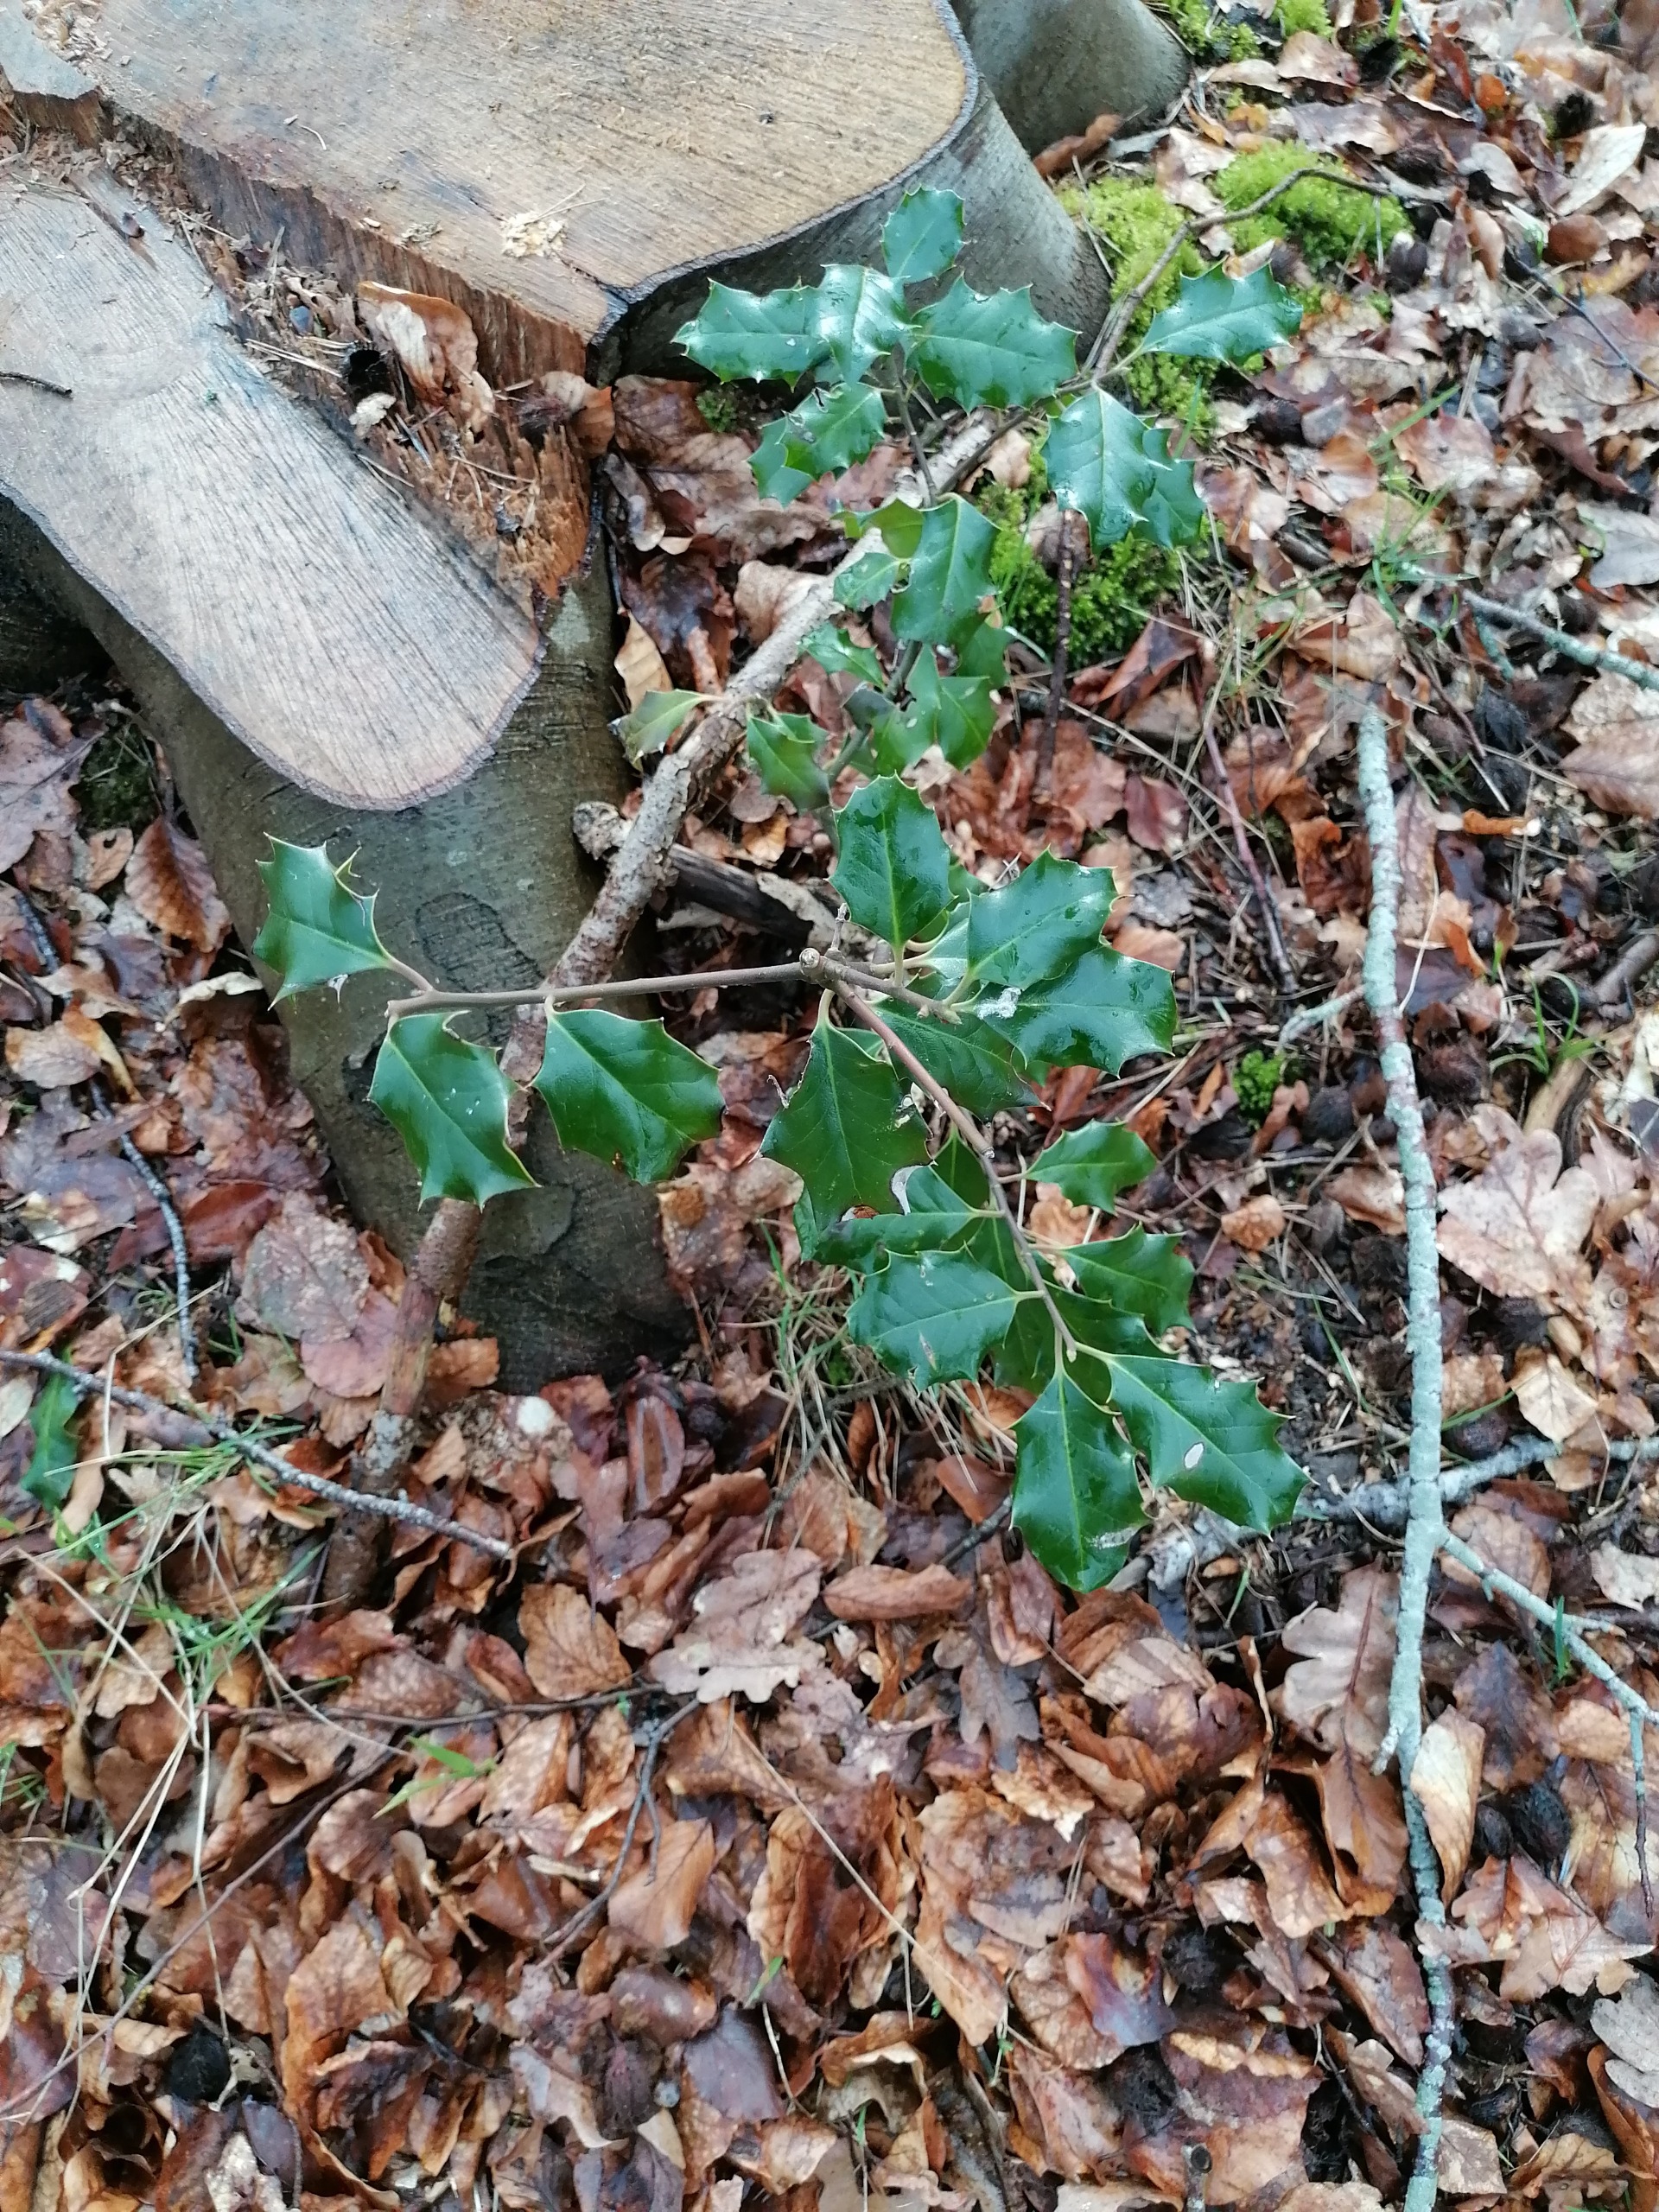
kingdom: Plantae
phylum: Tracheophyta
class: Magnoliopsida
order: Aquifoliales
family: Aquifoliaceae
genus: Ilex
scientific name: Ilex aquifolium
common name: Kristtorn
